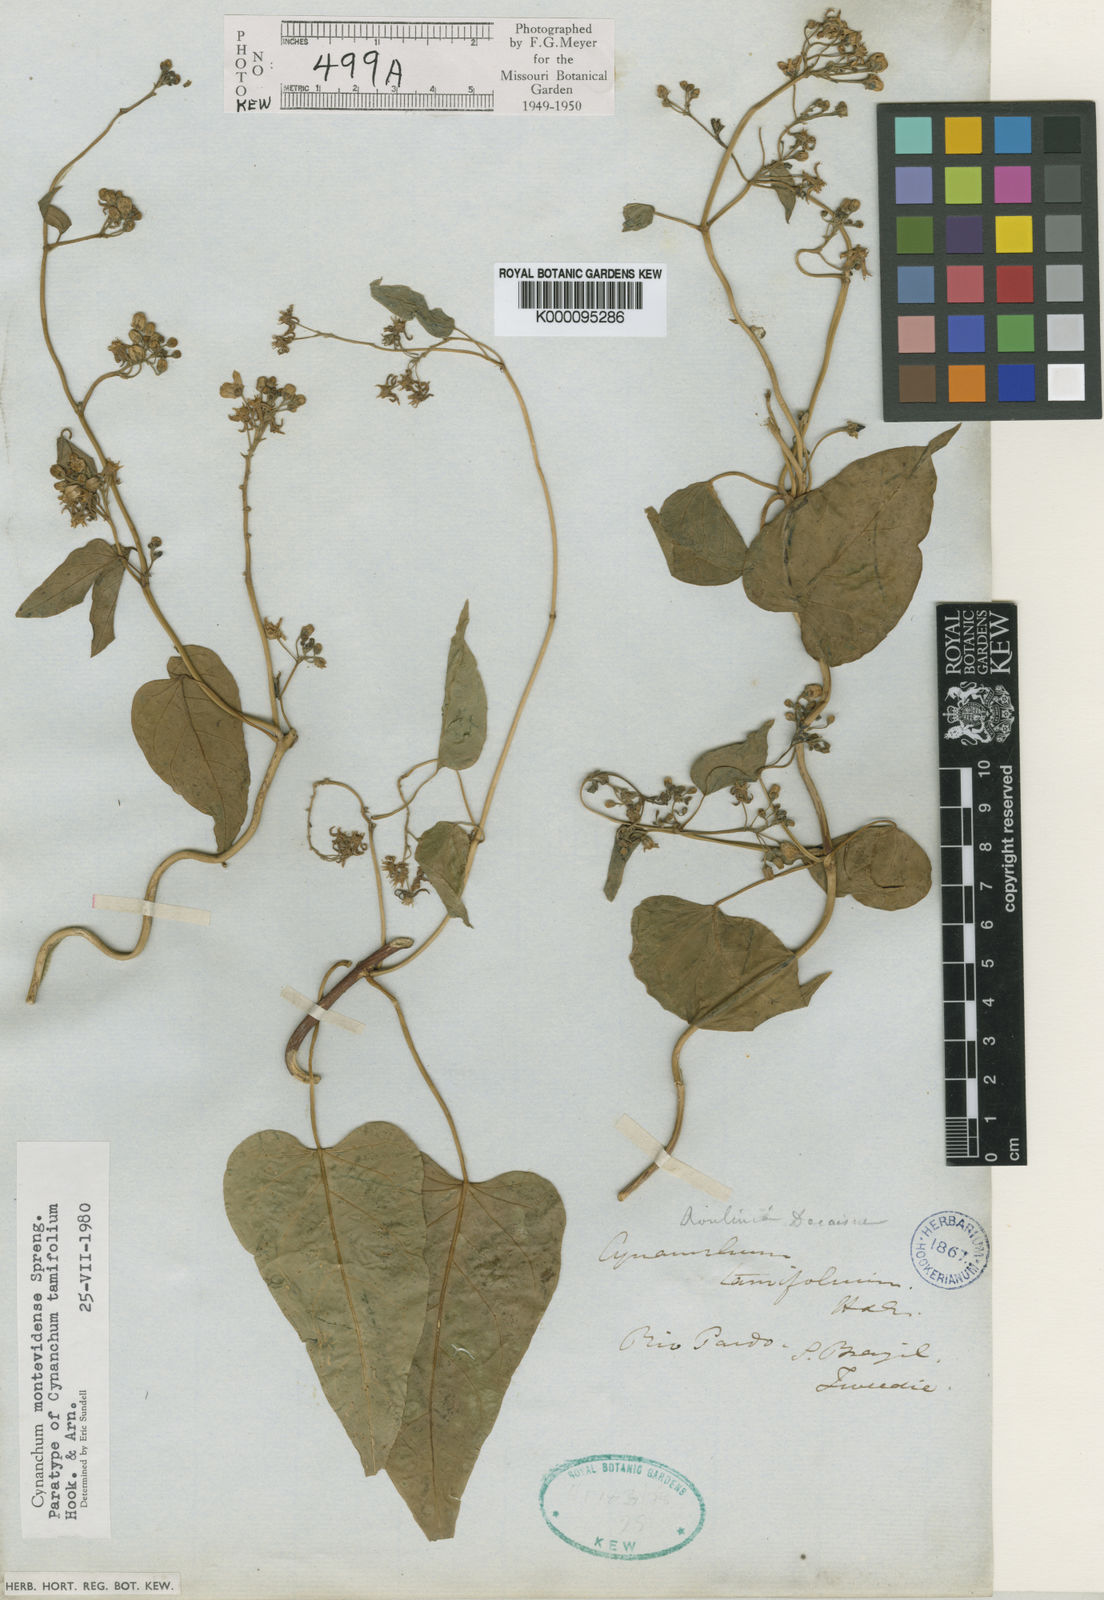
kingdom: Plantae
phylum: Tracheophyta
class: Magnoliopsida
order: Gentianales
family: Apocynaceae
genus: Cynanchum
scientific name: Cynanchum montevidense
